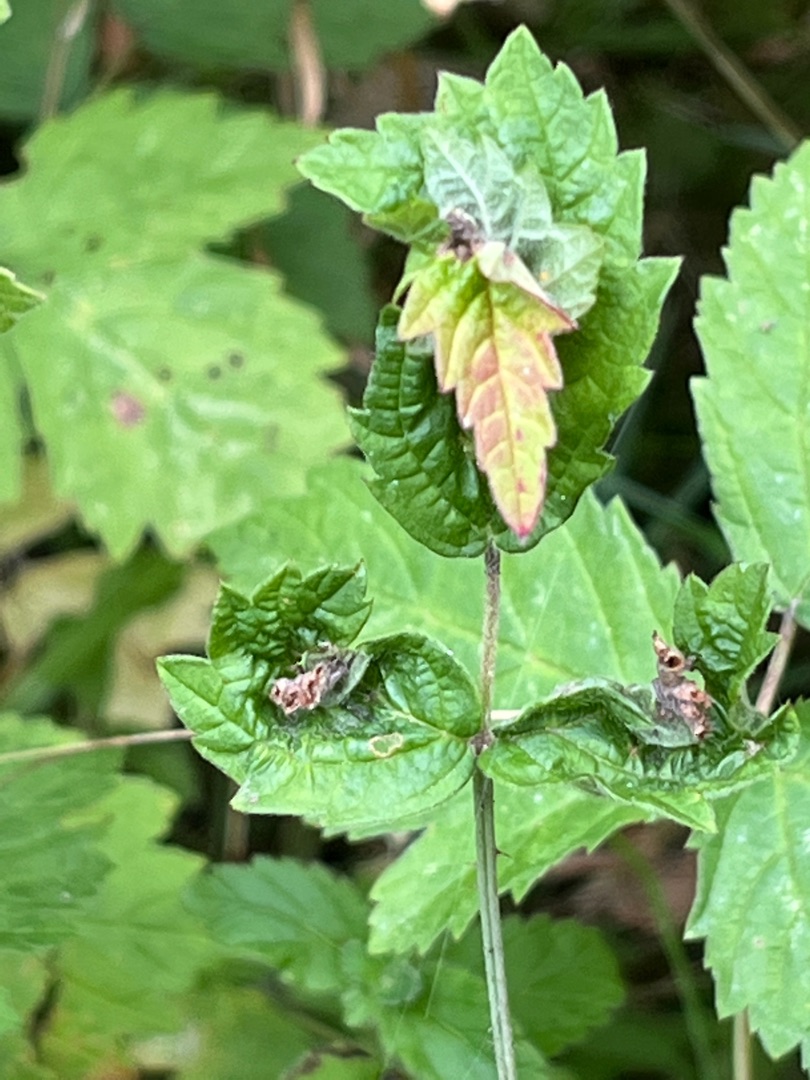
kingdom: Animalia
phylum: Arthropoda
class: Insecta
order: Diptera
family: Cecidomyiidae
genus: Dasineura
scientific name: Dasineura plicatrix
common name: Brombærbladgalmyg
